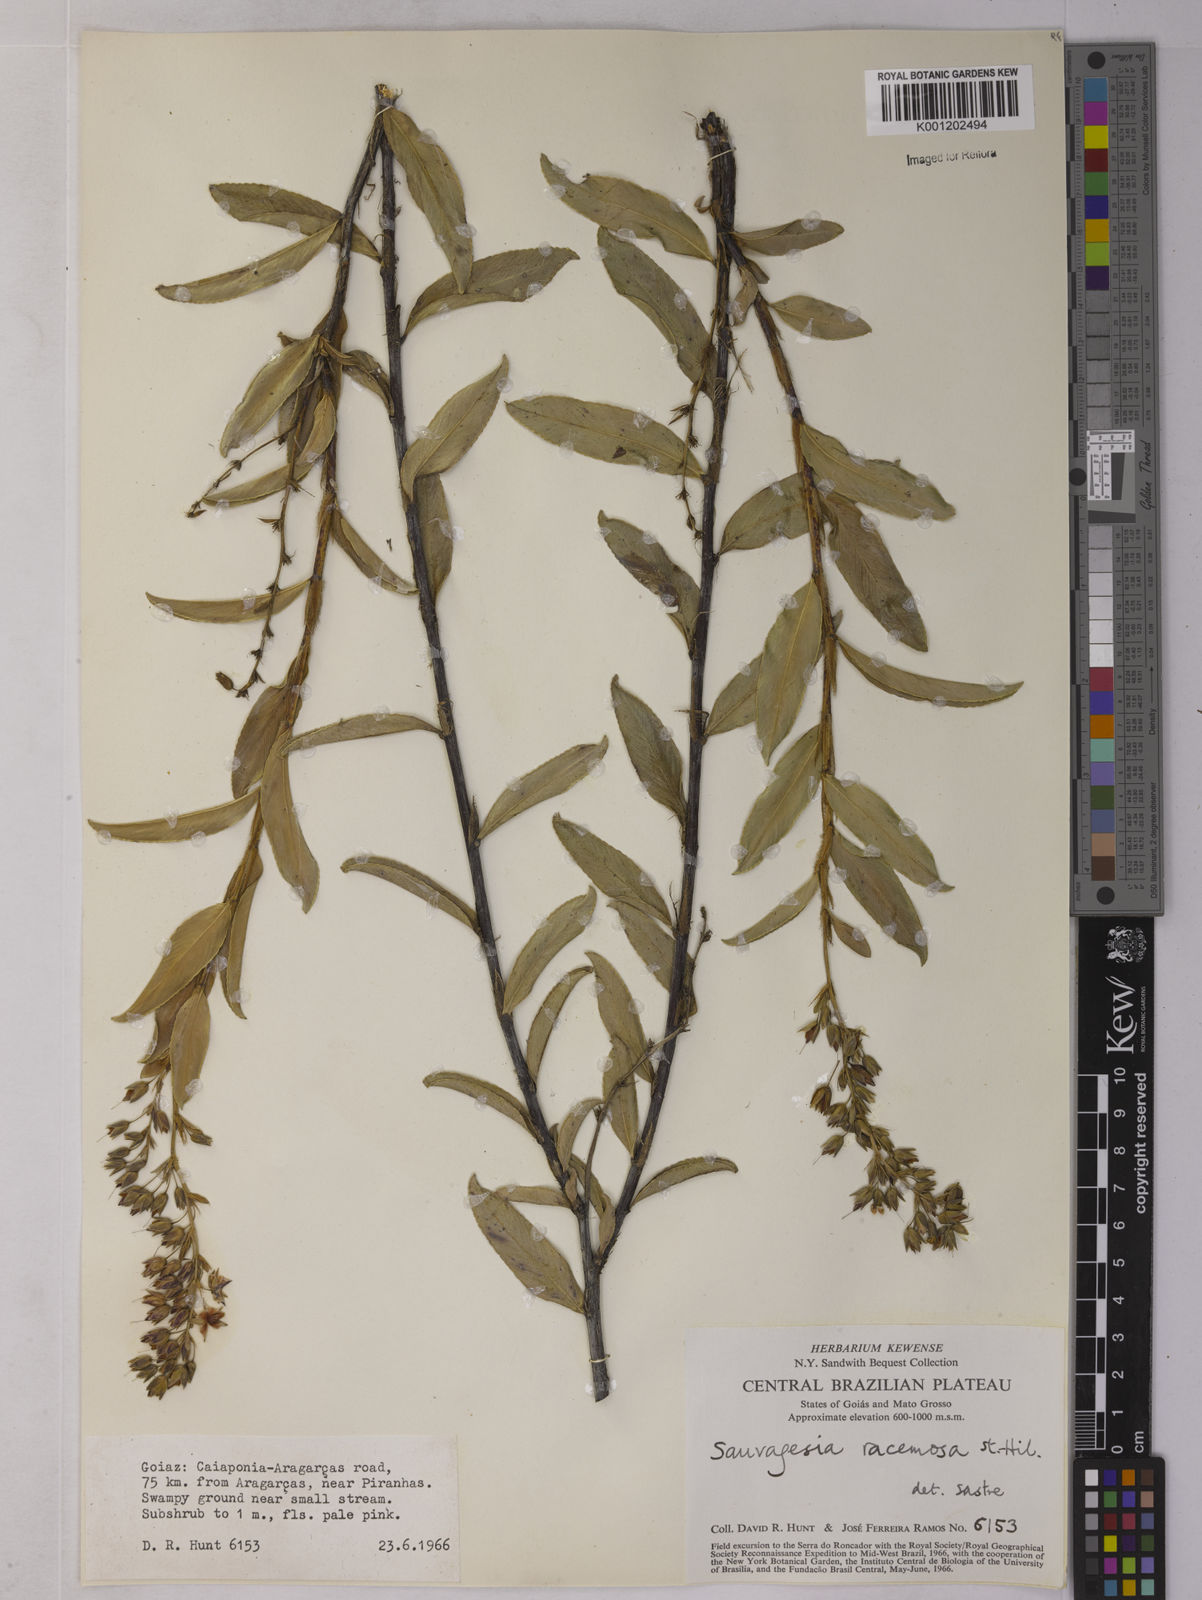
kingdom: Plantae
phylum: Tracheophyta
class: Magnoliopsida
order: Malpighiales
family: Ochnaceae
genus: Sauvagesia
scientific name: Sauvagesia racemosa
